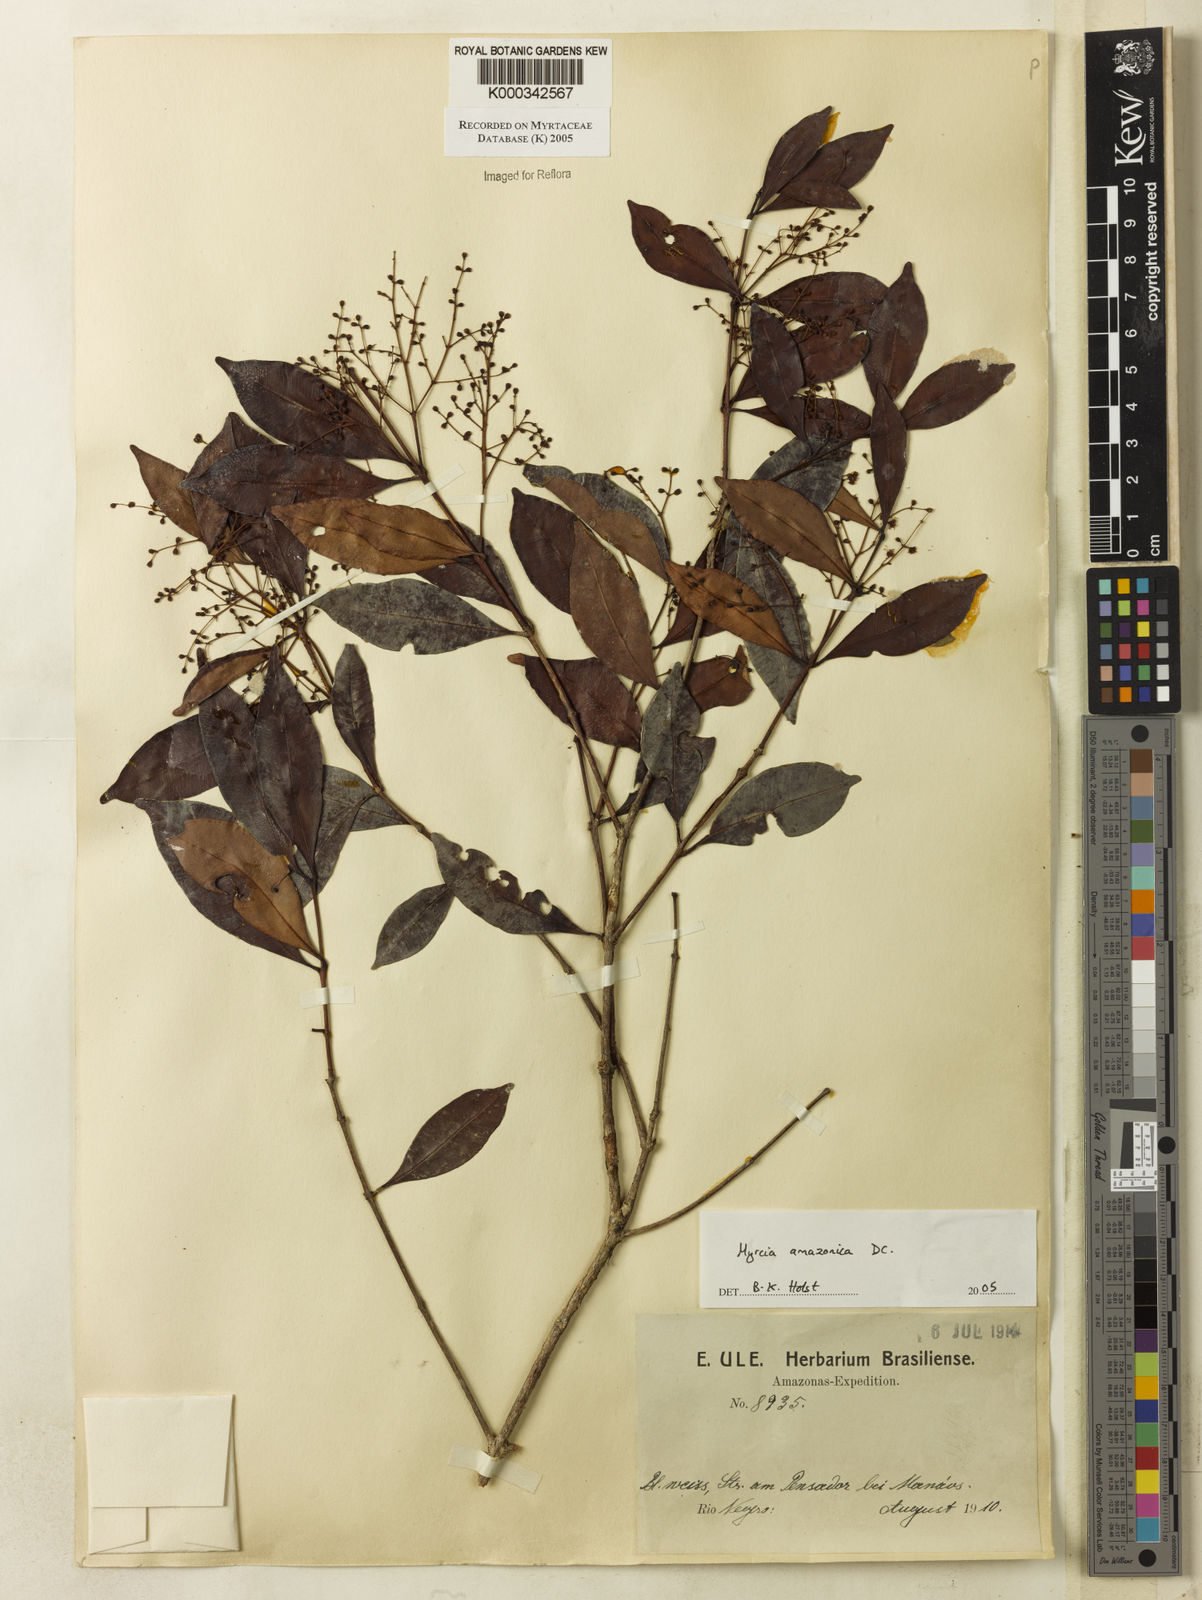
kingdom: Plantae
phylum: Tracheophyta
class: Magnoliopsida
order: Myrtales
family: Myrtaceae
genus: Myrcia
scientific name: Myrcia amazonica
